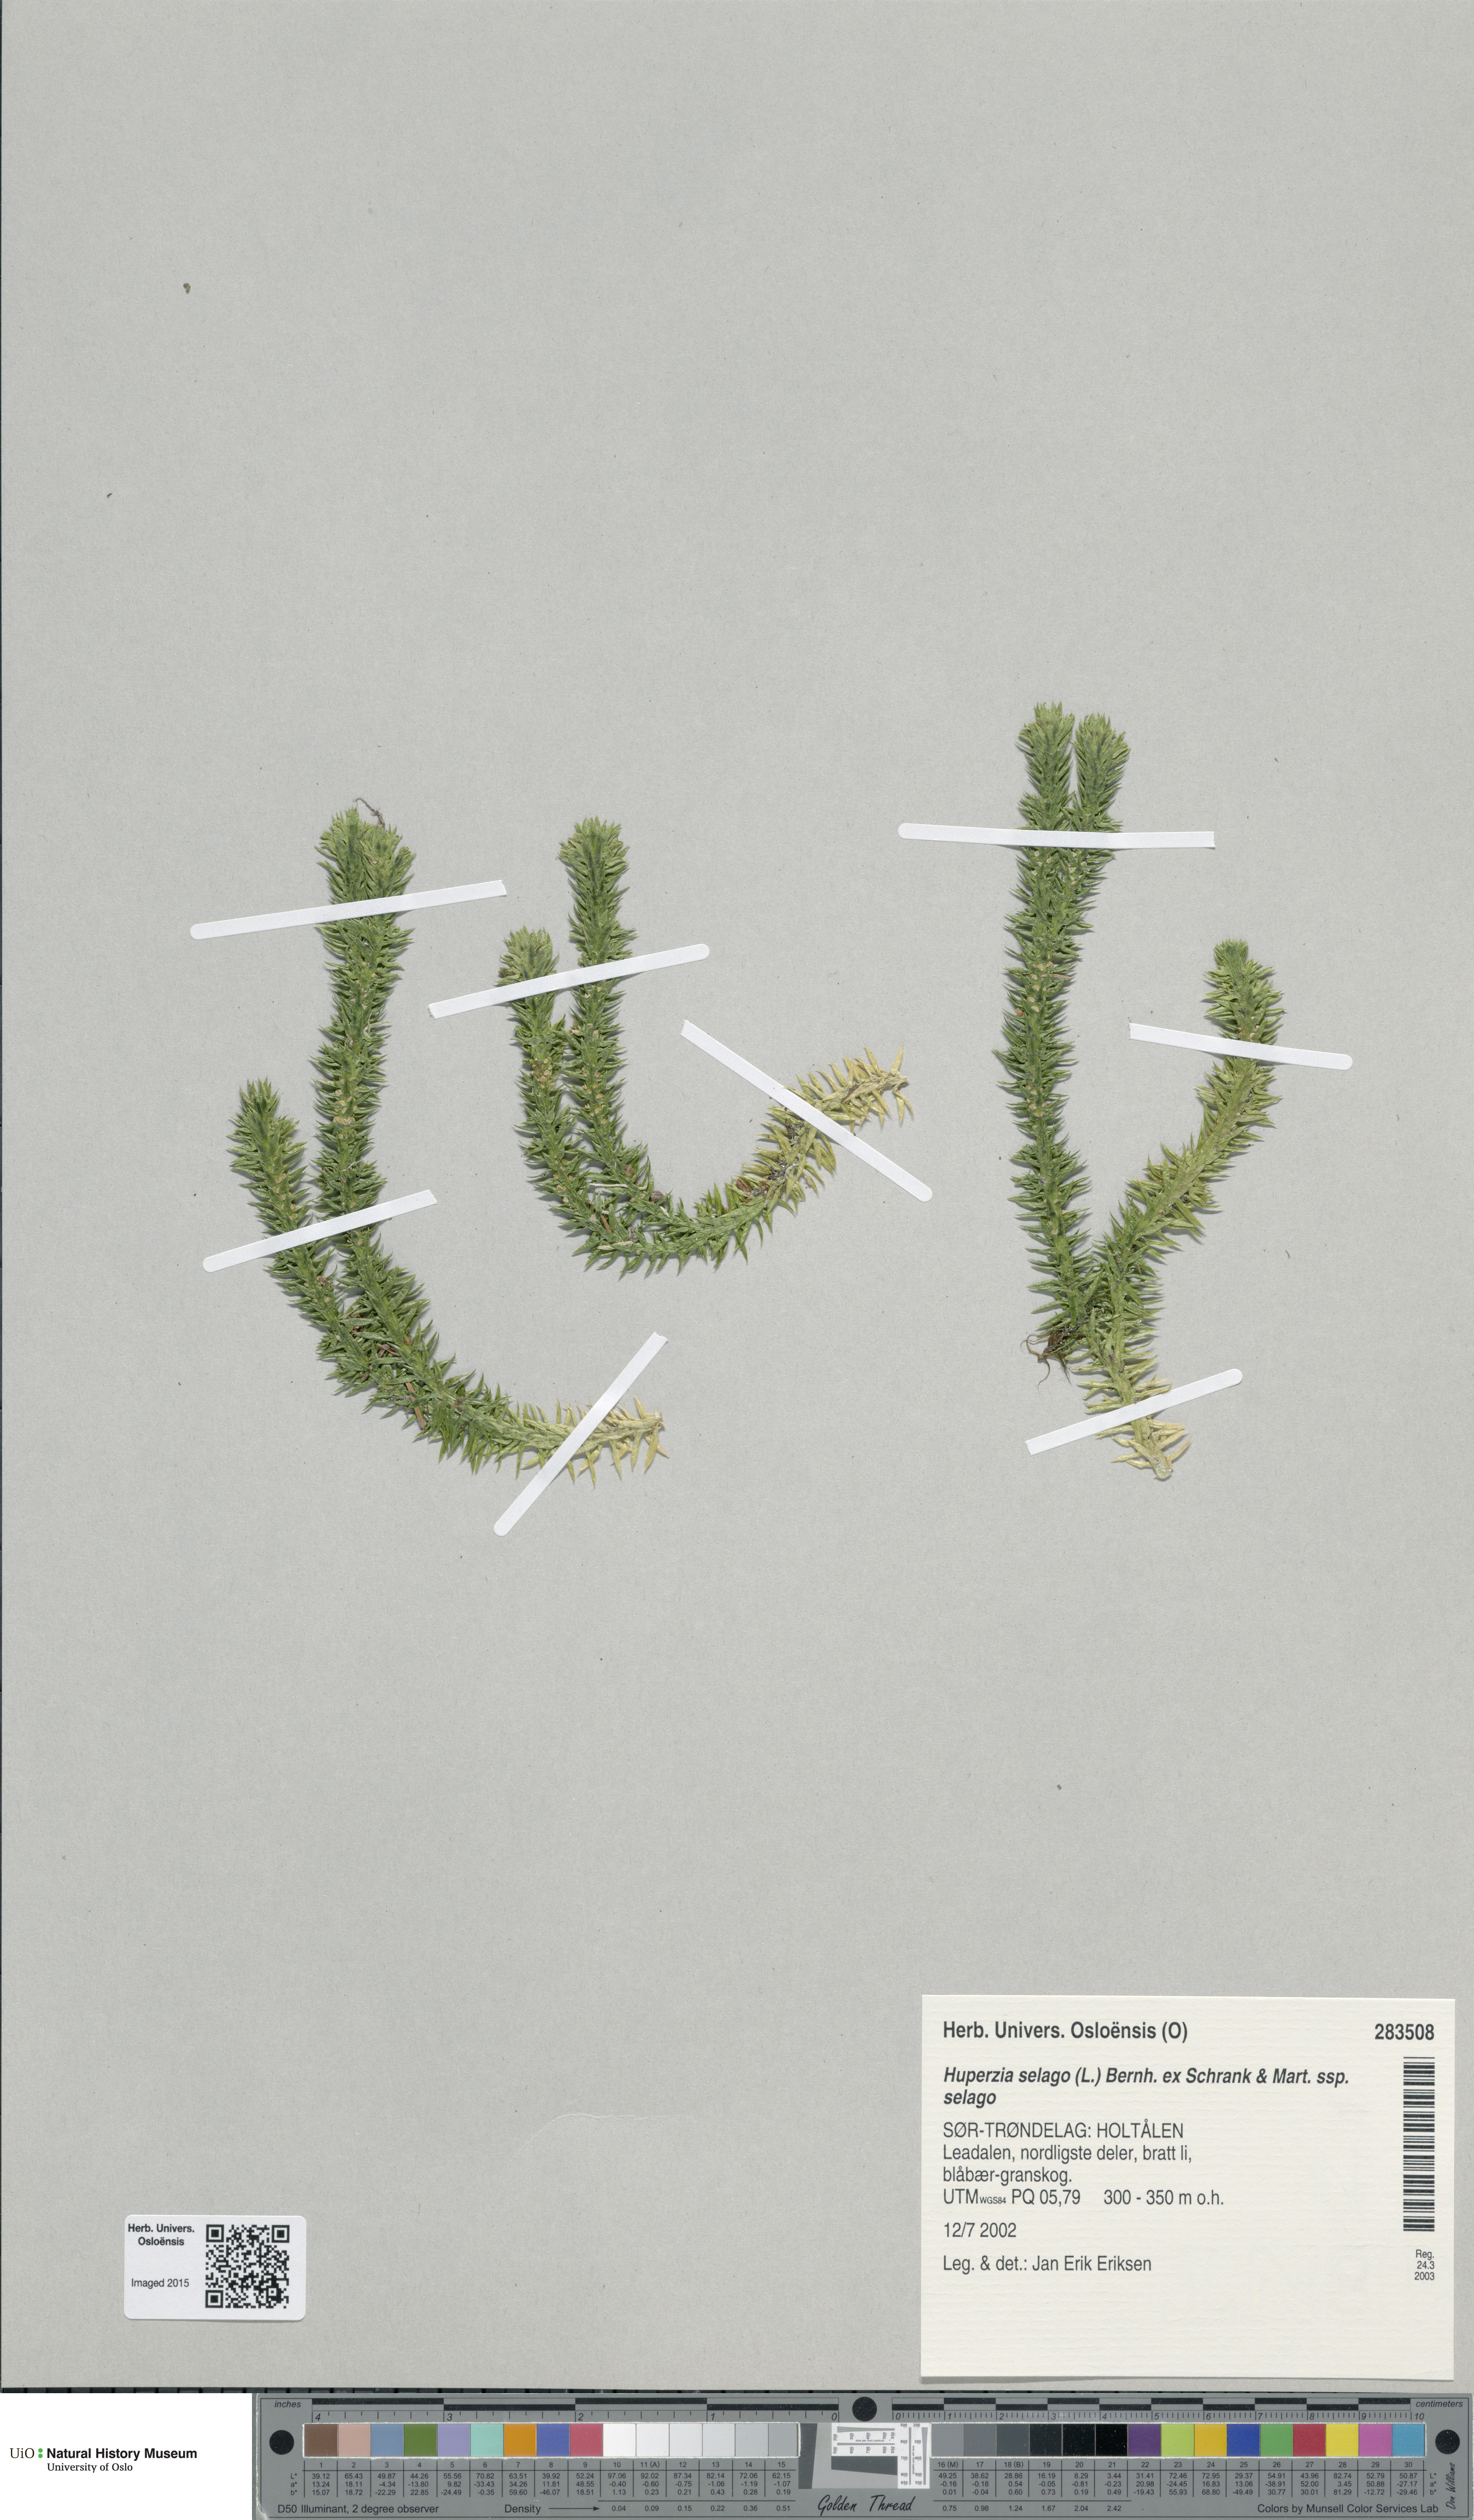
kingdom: Plantae
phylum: Tracheophyta
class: Lycopodiopsida
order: Lycopodiales
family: Lycopodiaceae
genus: Huperzia
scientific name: Huperzia selago
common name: Northern firmoss
